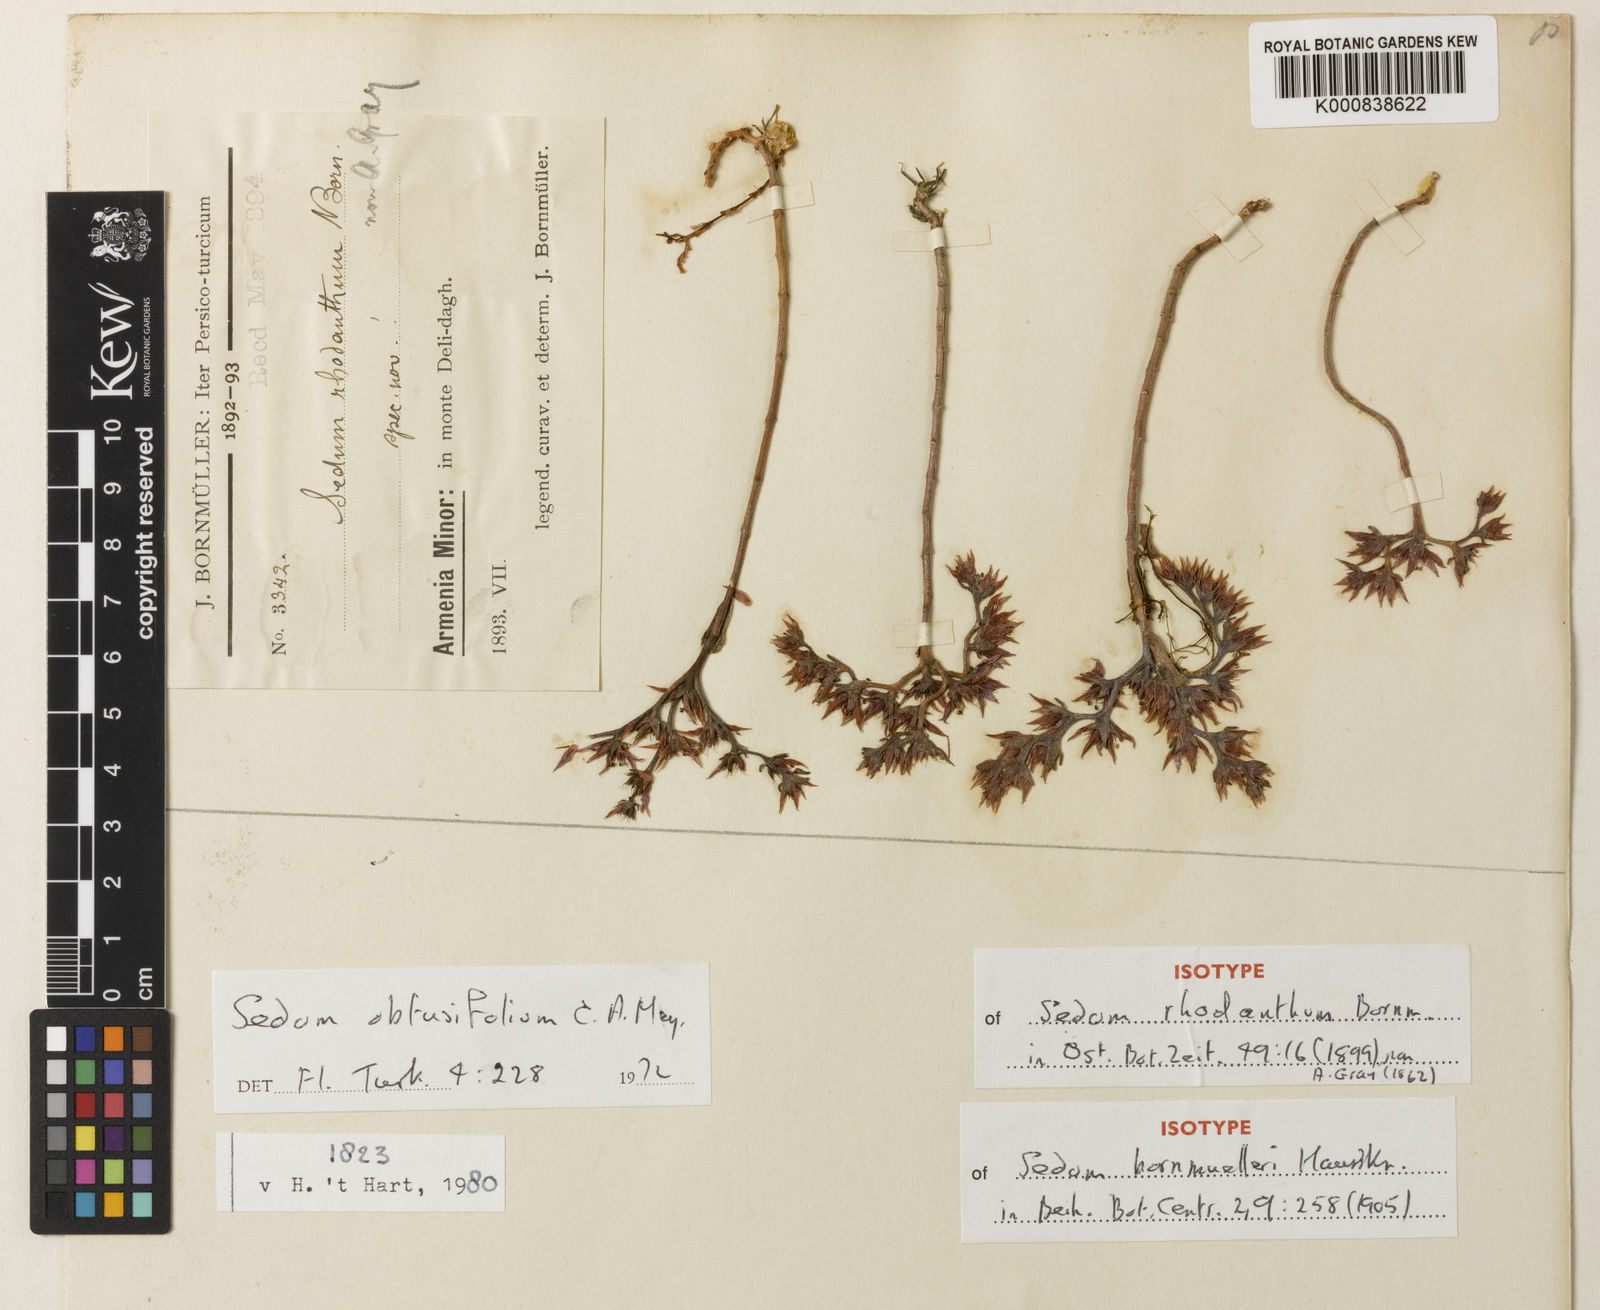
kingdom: Plantae
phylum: Tracheophyta
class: Magnoliopsida
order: Saxifragales
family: Crassulaceae
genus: Phedimus
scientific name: Phedimus obtusifolius
